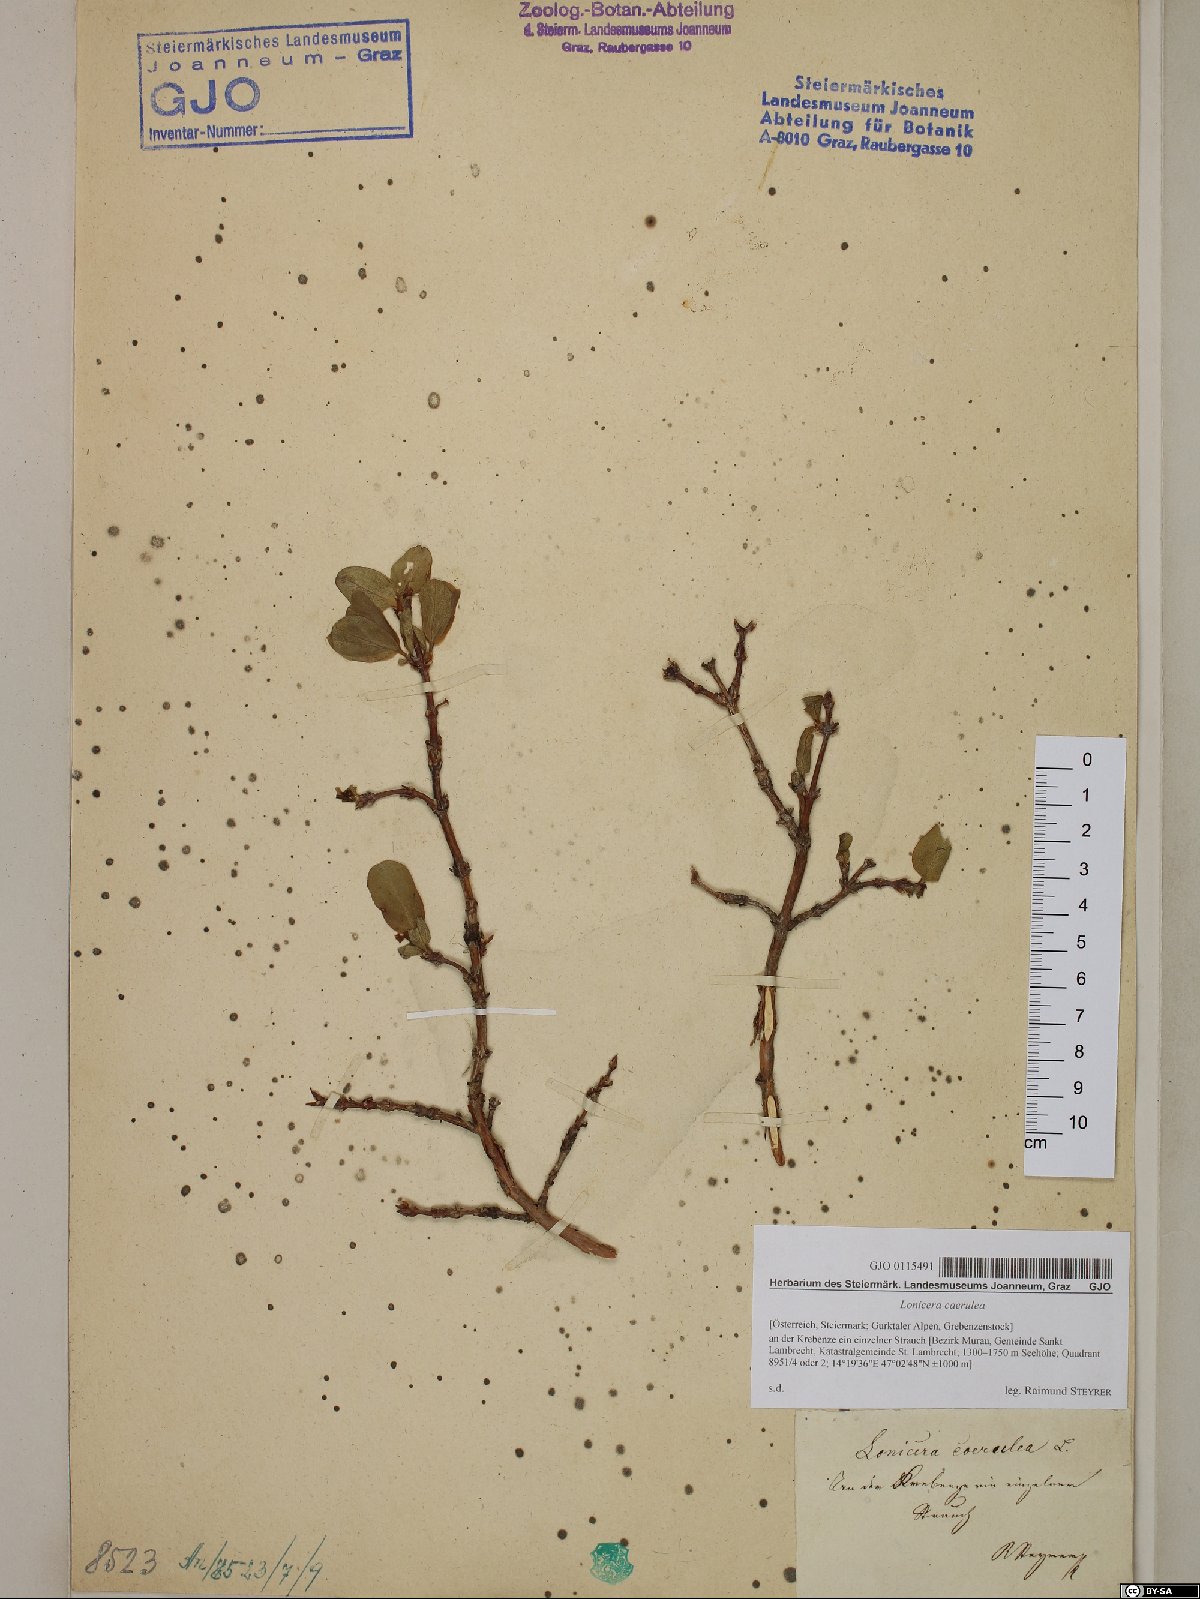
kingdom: Plantae
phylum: Tracheophyta
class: Magnoliopsida
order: Dipsacales
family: Caprifoliaceae
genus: Lonicera
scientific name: Lonicera caerulea
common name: Blue honeysuckle
